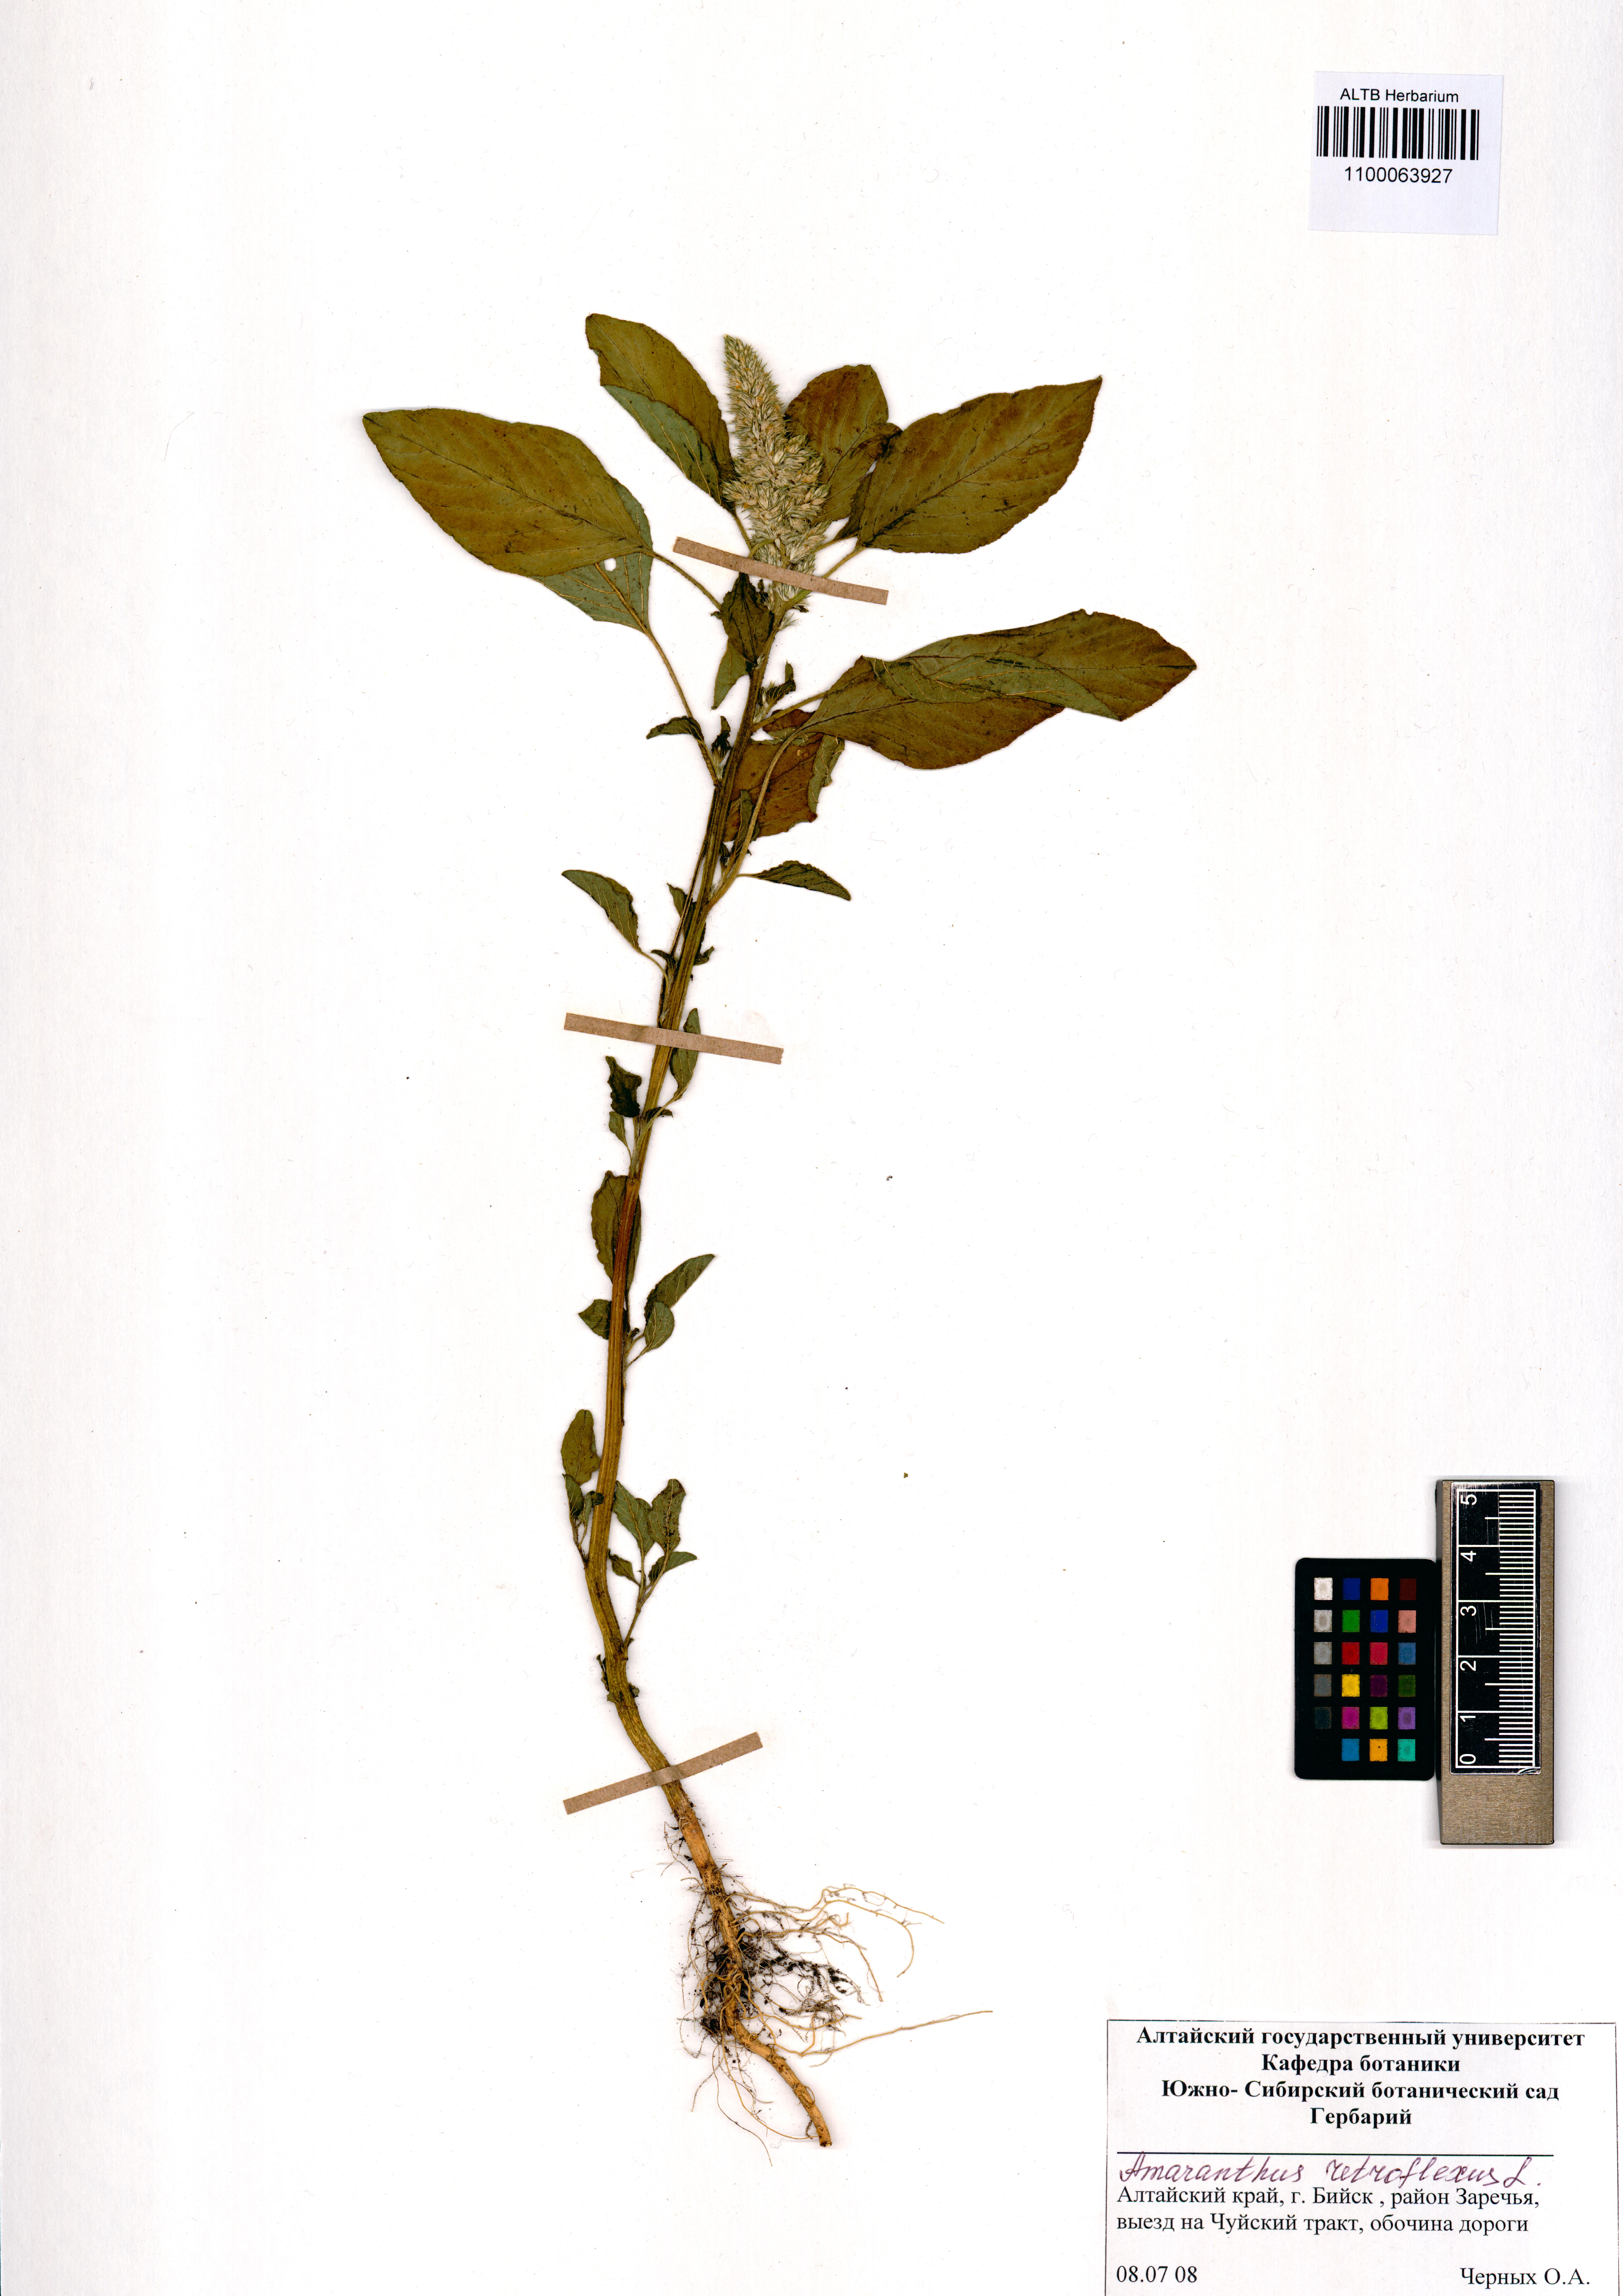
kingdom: Plantae
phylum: Tracheophyta
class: Magnoliopsida
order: Caryophyllales
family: Amaranthaceae
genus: Amaranthus
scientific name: Amaranthus retroflexus
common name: Redroot amaranth
